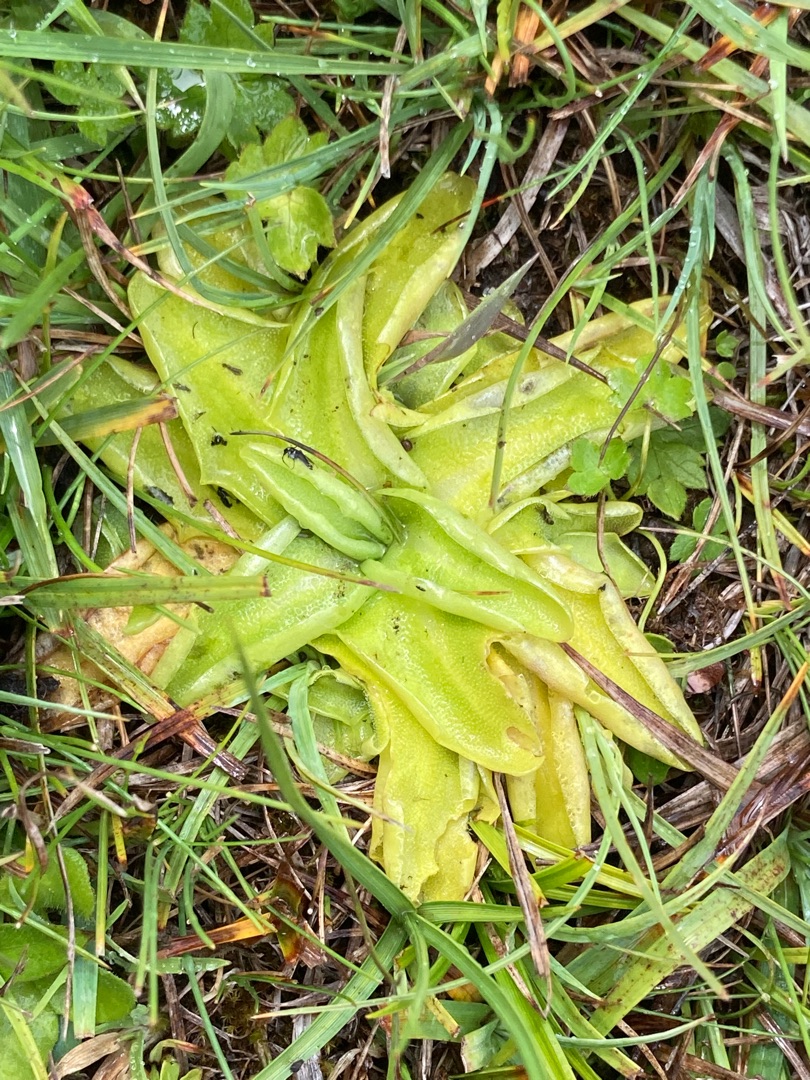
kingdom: Plantae
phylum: Tracheophyta
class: Magnoliopsida
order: Lamiales
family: Lentibulariaceae
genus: Pinguicula
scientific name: Pinguicula vulgaris
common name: Vibefedt
